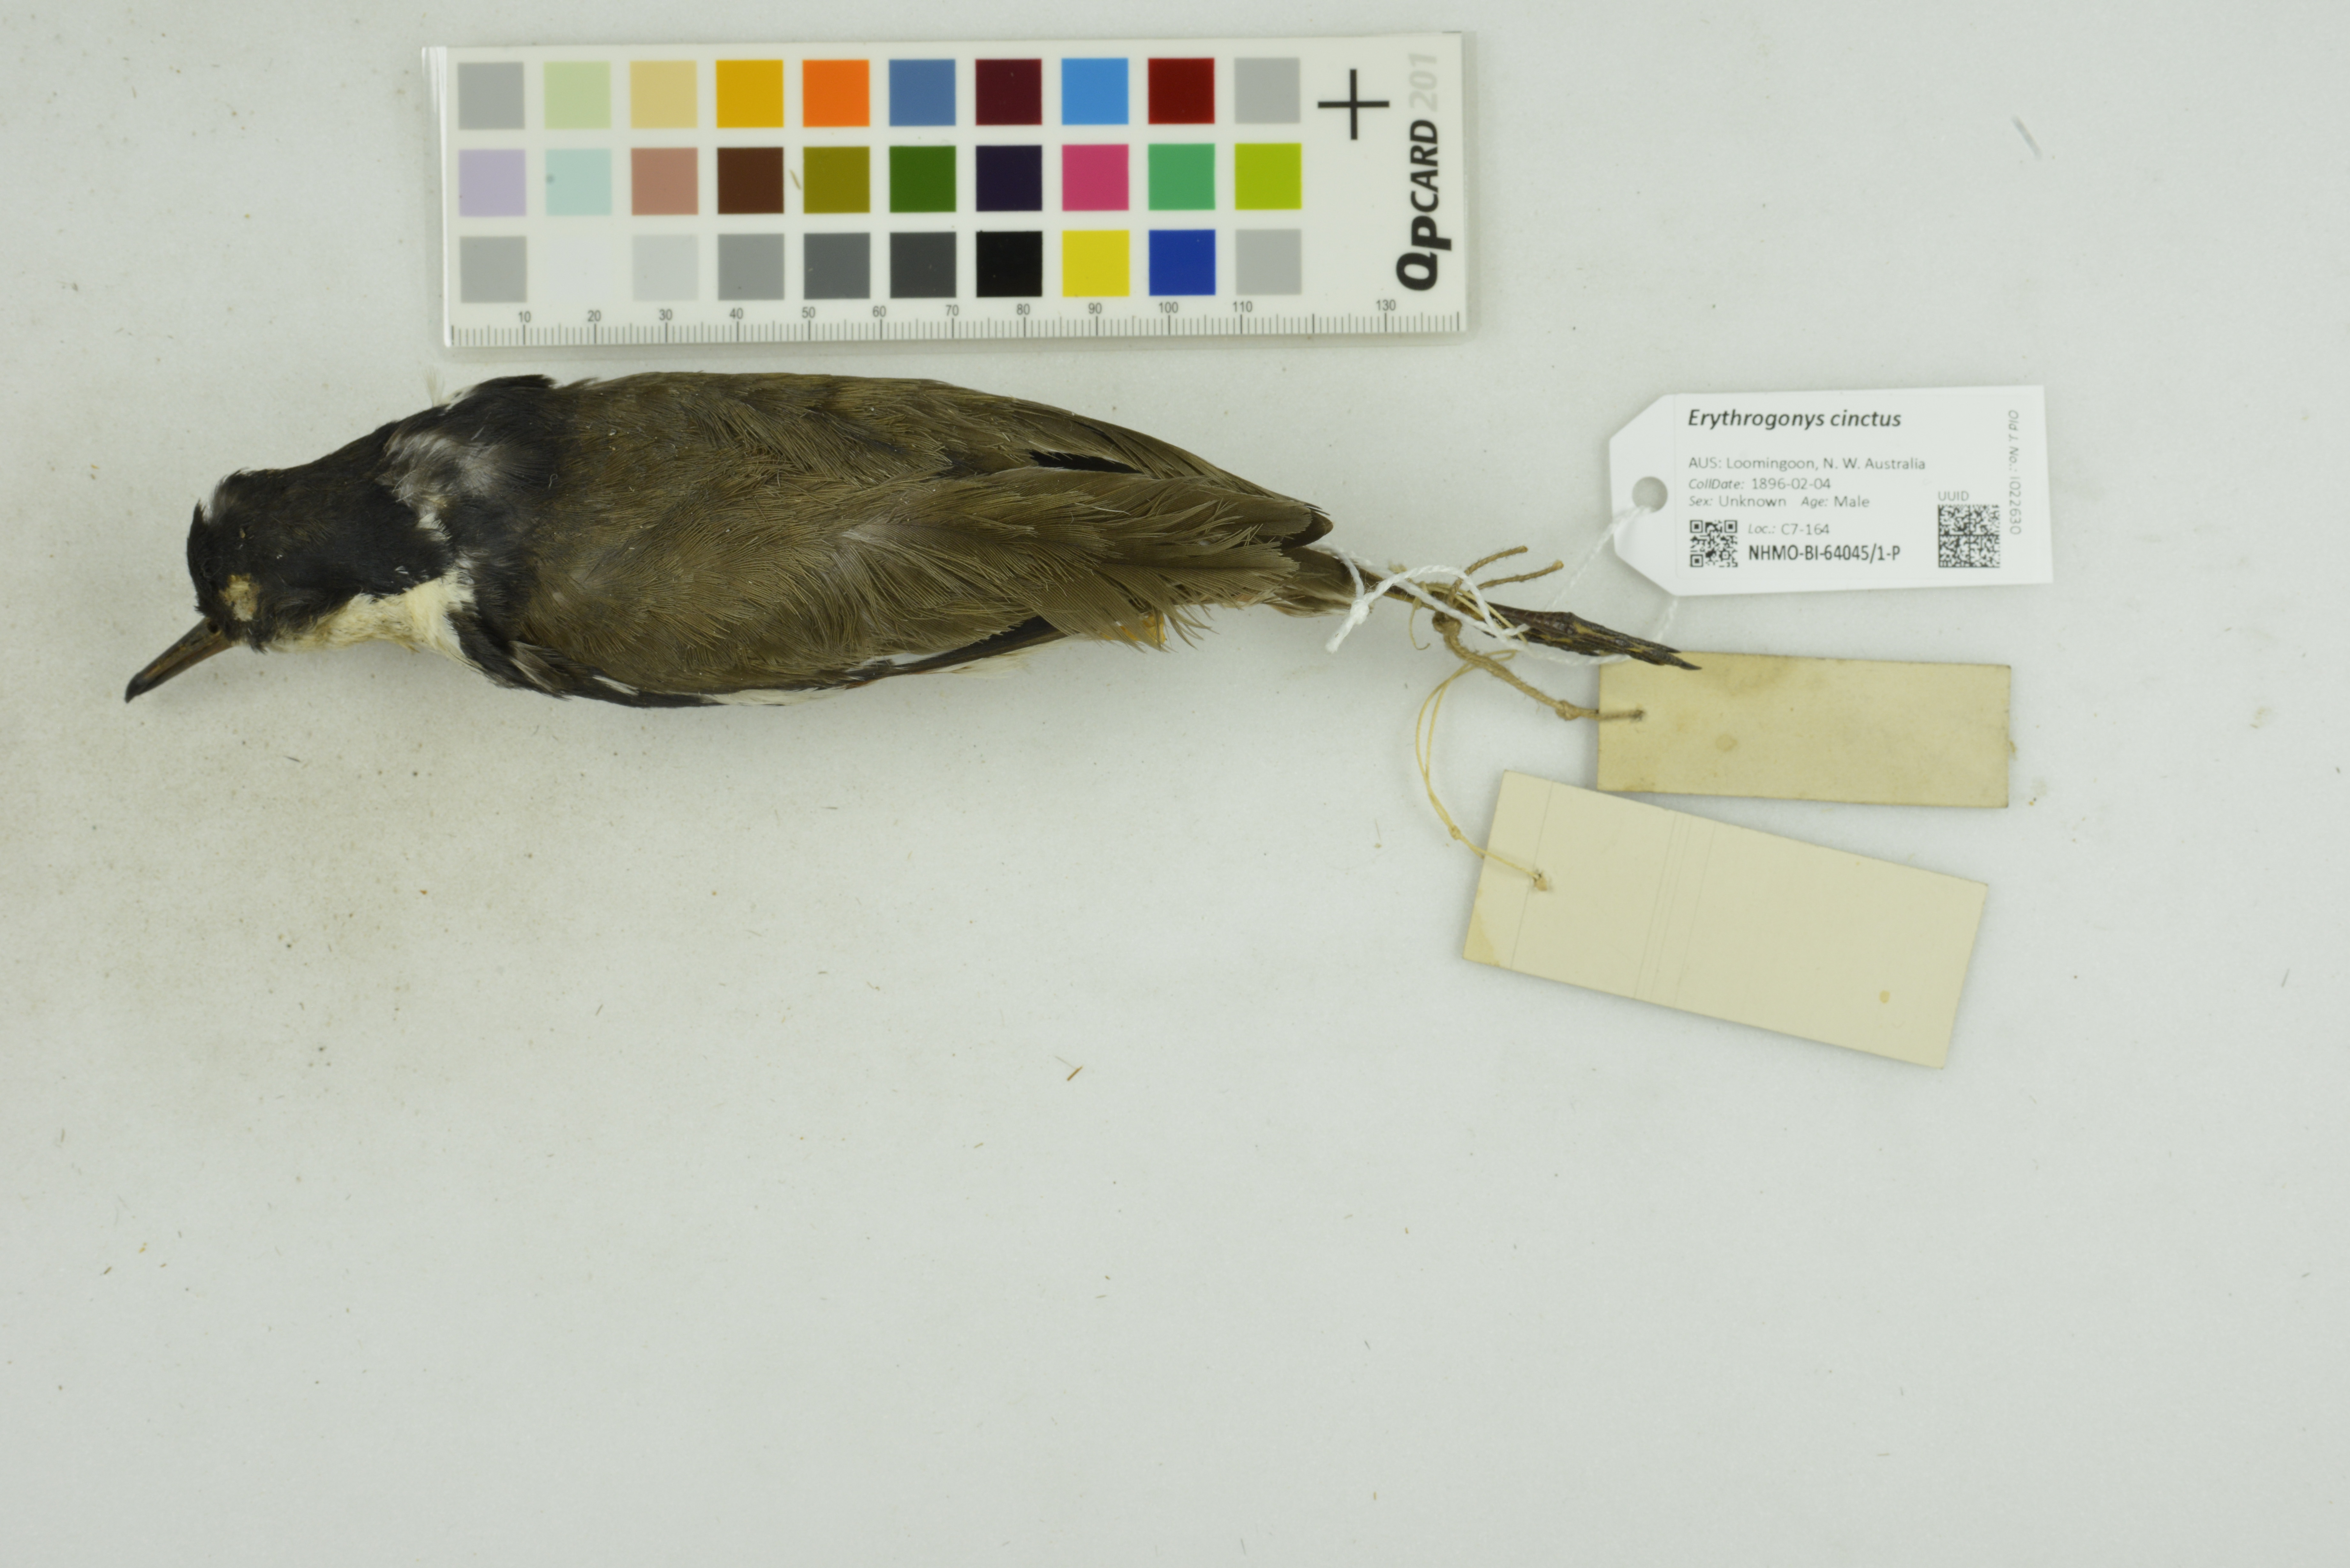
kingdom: Animalia
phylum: Chordata
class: Aves
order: Charadriiformes
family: Charadriidae
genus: Erythrogonys
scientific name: Erythrogonys cinctus
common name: Red-kneed dotterel
